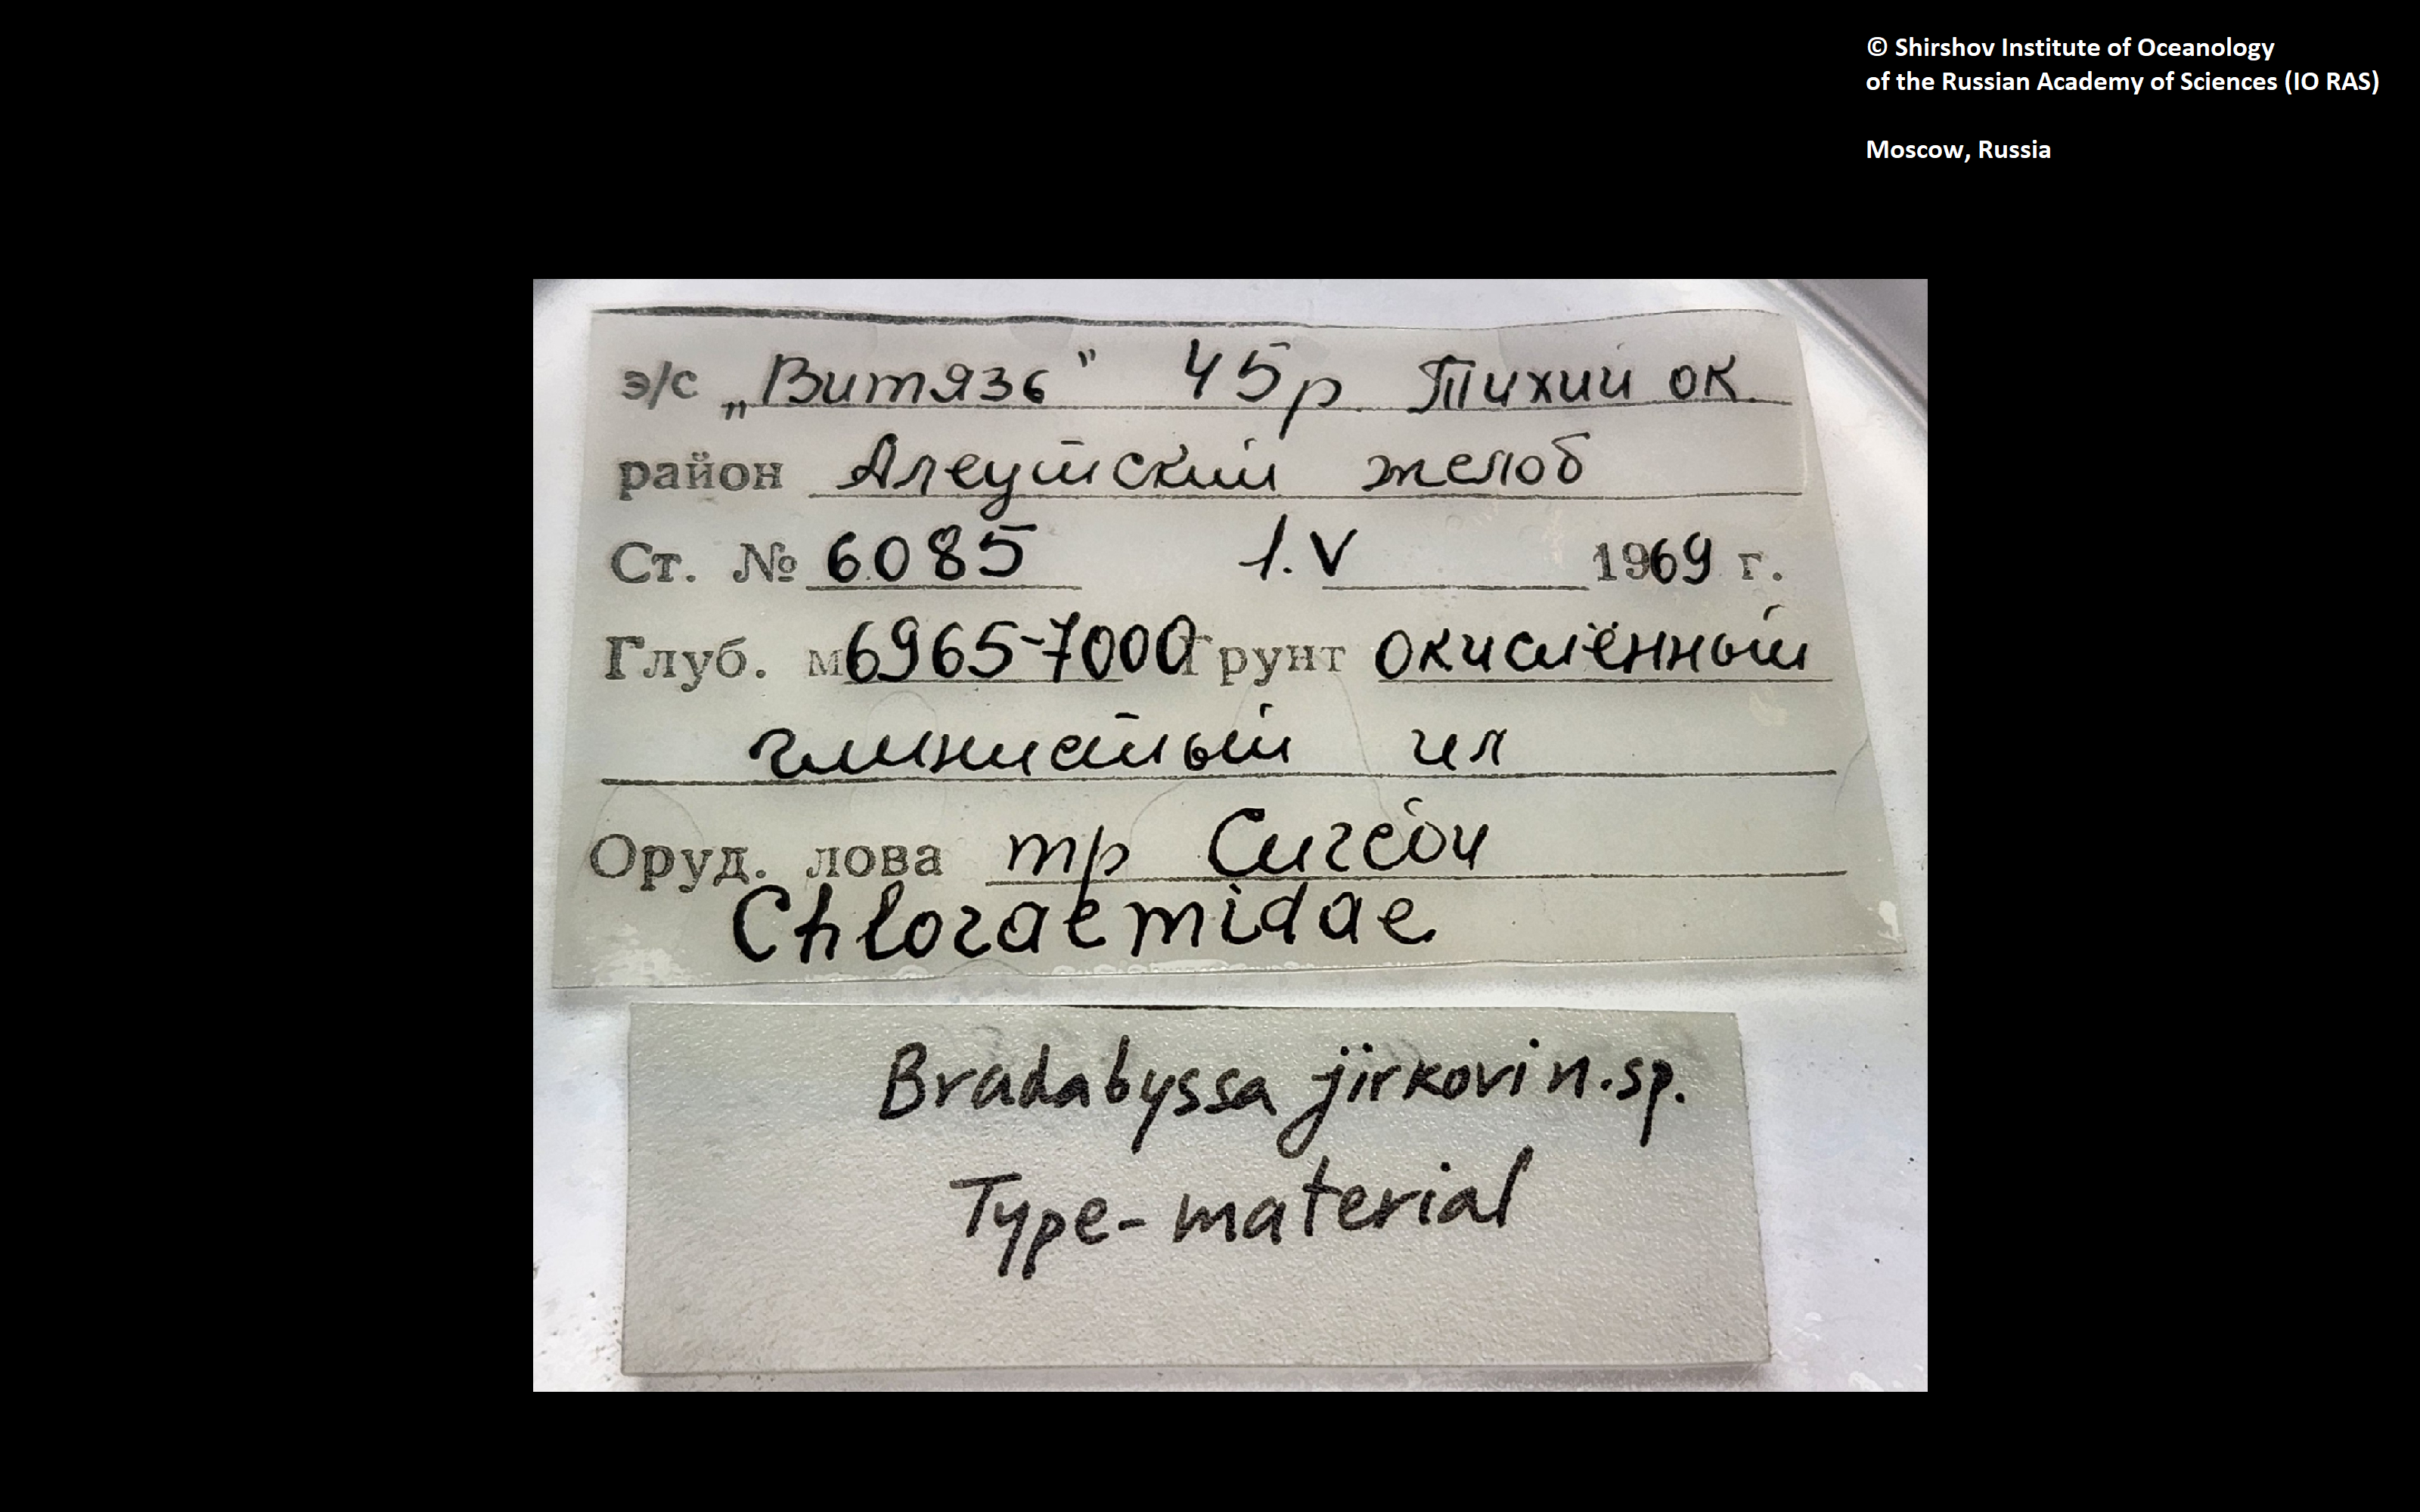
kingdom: Animalia
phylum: Annelida
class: Polychaeta
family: Flabelligeridae
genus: Bradabyssa
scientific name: Bradabyssa jirkovi
